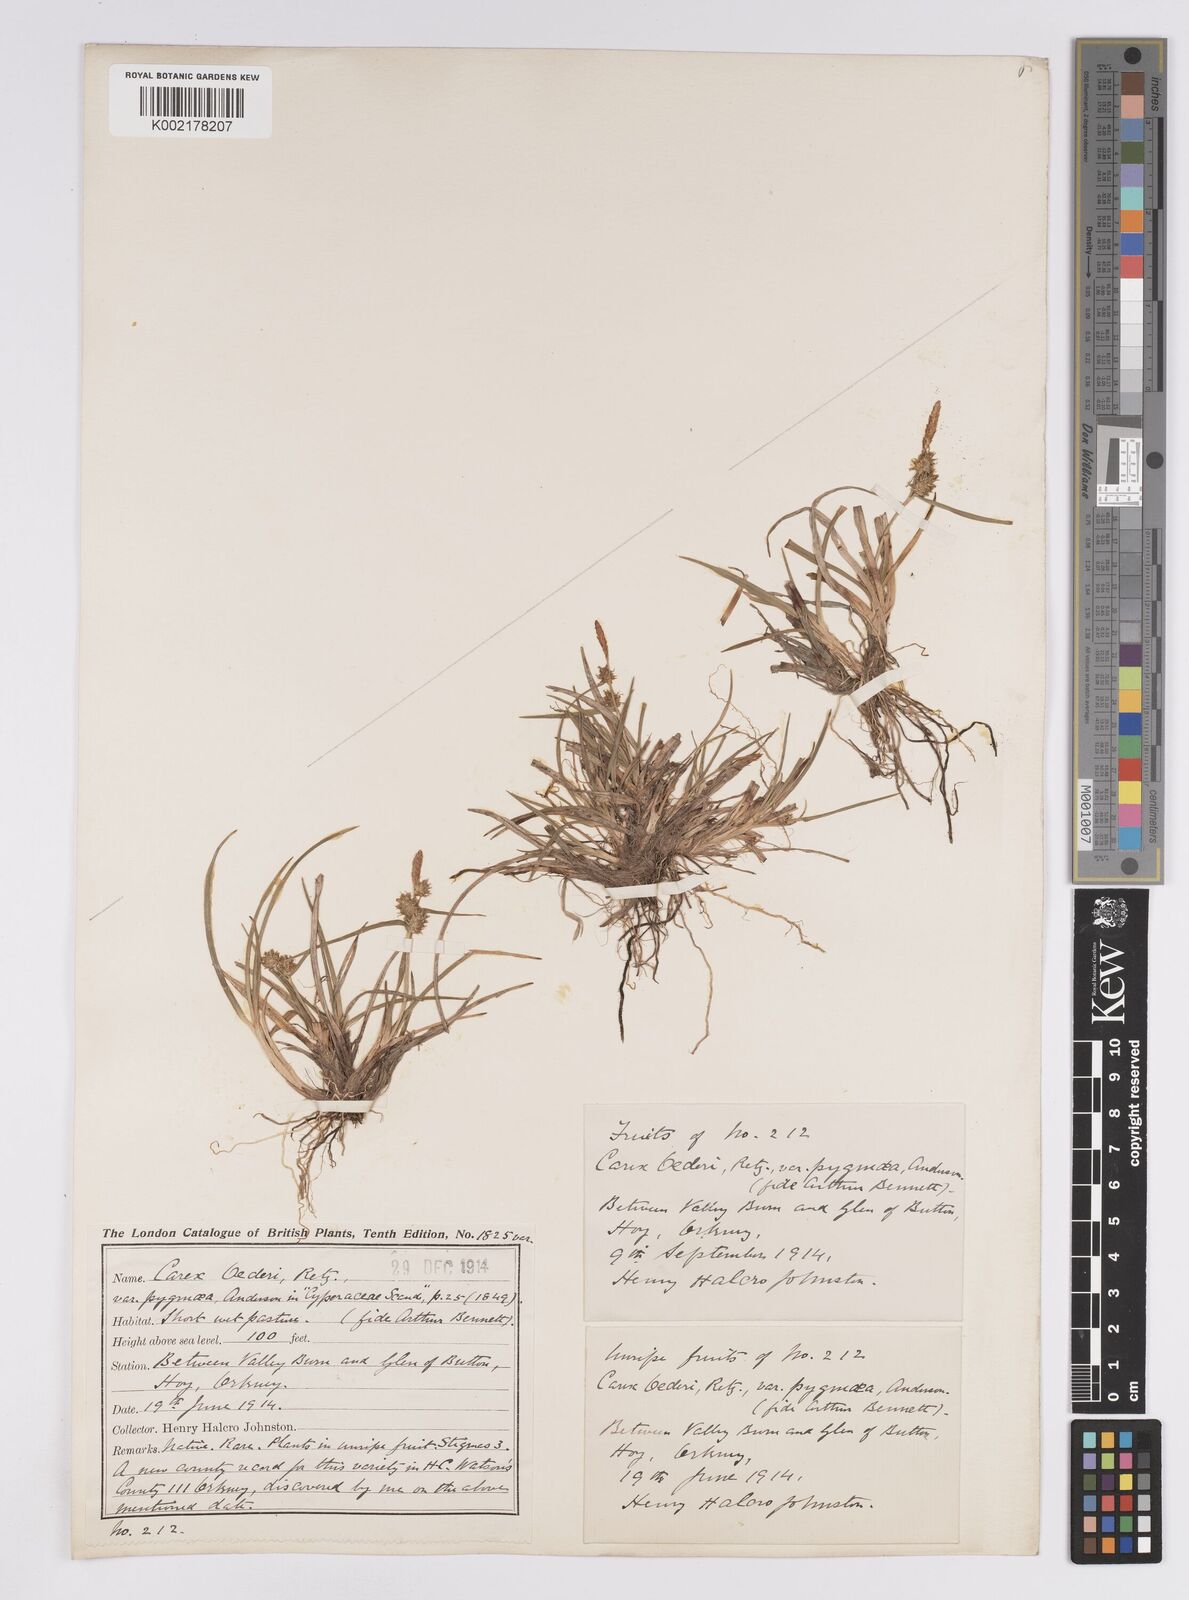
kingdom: Plantae
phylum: Tracheophyta
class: Liliopsida
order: Poales
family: Cyperaceae
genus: Carex
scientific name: Carex demissa
